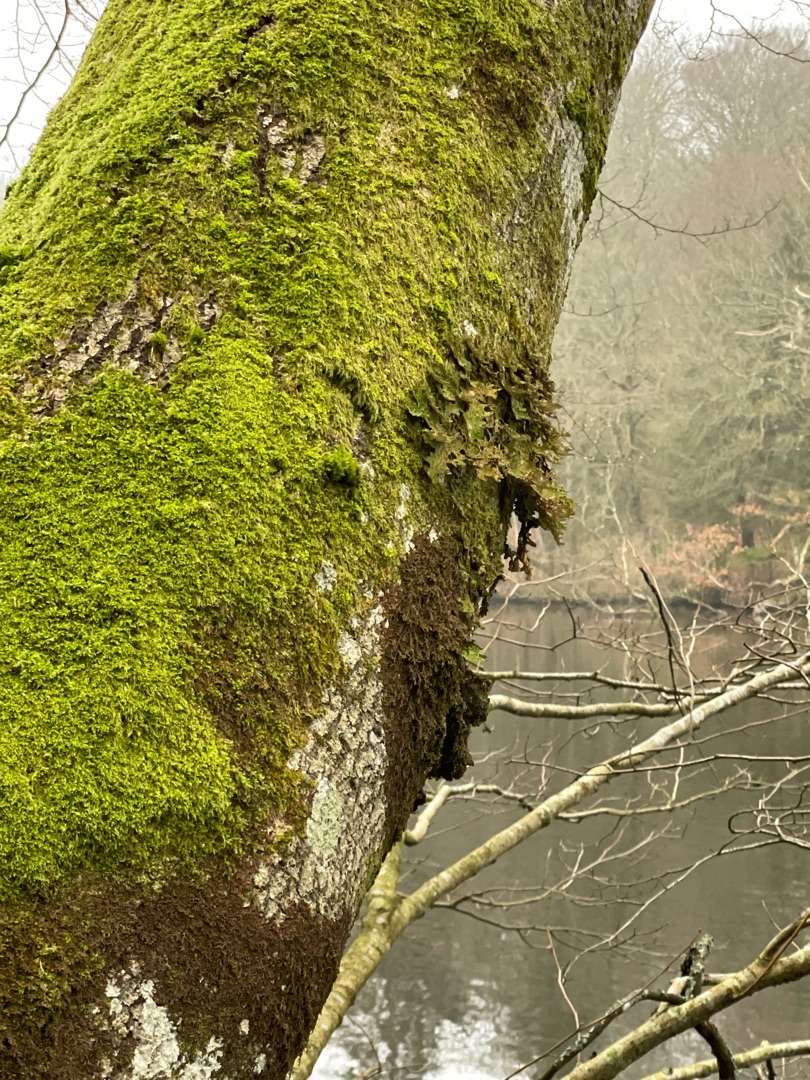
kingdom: Fungi
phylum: Ascomycota
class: Lecanoromycetes
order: Peltigerales
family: Lobariaceae
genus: Lobaria
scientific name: Lobaria pulmonaria
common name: Almindelig lungelav
